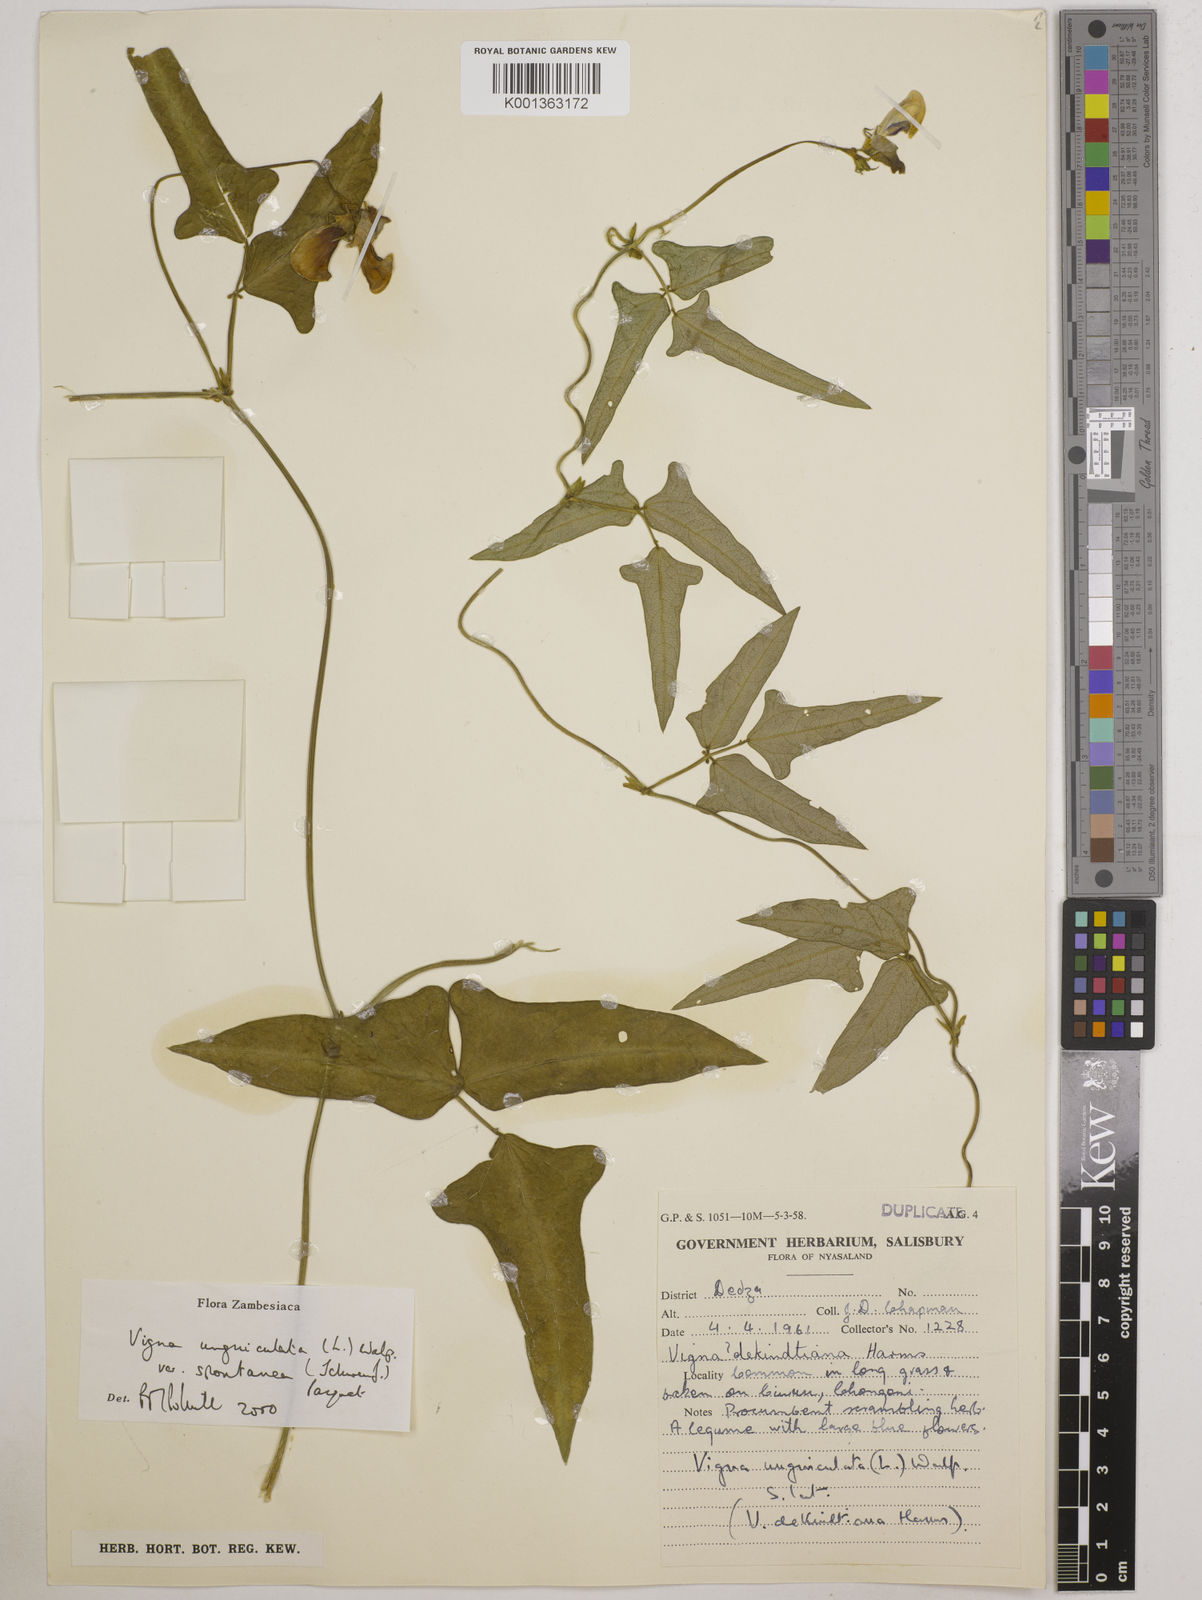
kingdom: Plantae
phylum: Tracheophyta
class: Magnoliopsida
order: Fabales
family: Fabaceae
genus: Vigna
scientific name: Vigna unguiculata
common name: Cowpea
